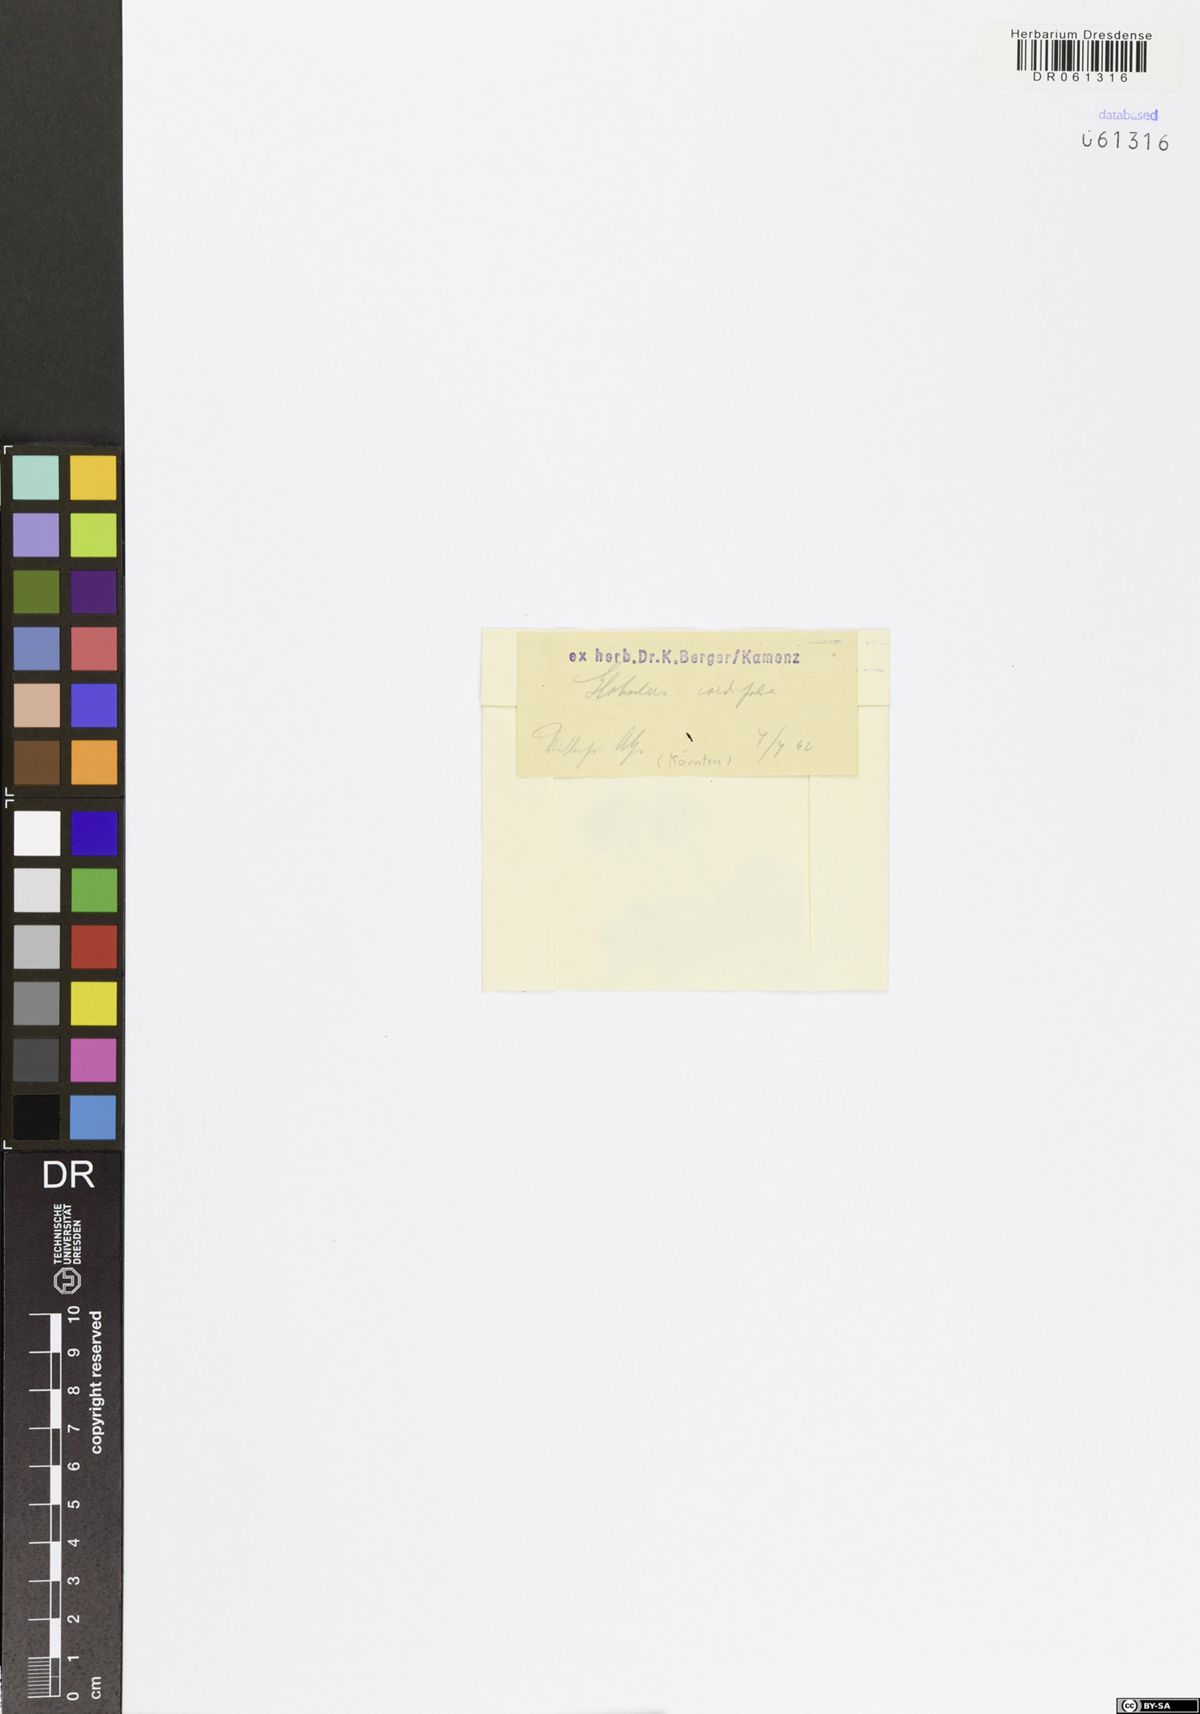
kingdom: Plantae
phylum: Tracheophyta
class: Magnoliopsida
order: Lamiales
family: Plantaginaceae
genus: Globularia
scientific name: Globularia cordifolia
